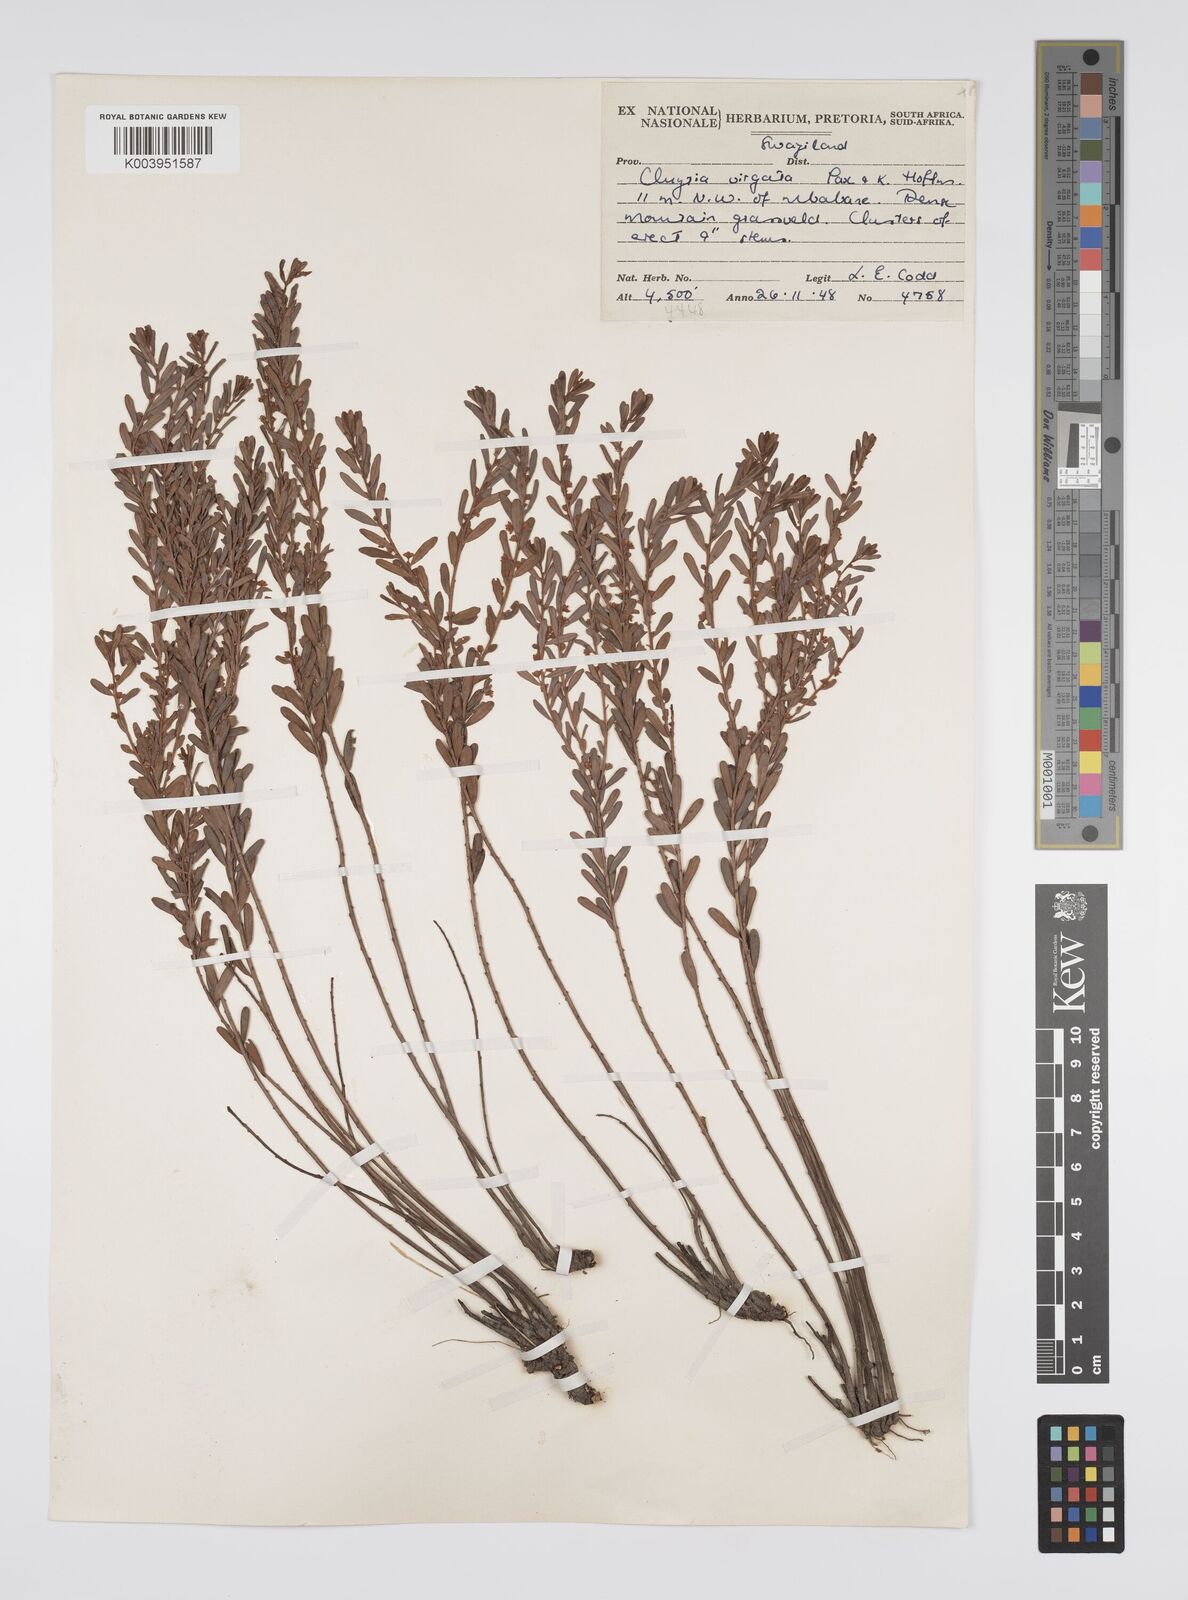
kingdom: Plantae
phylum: Tracheophyta
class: Magnoliopsida
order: Malpighiales
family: Peraceae
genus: Clutia
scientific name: Clutia virgata
